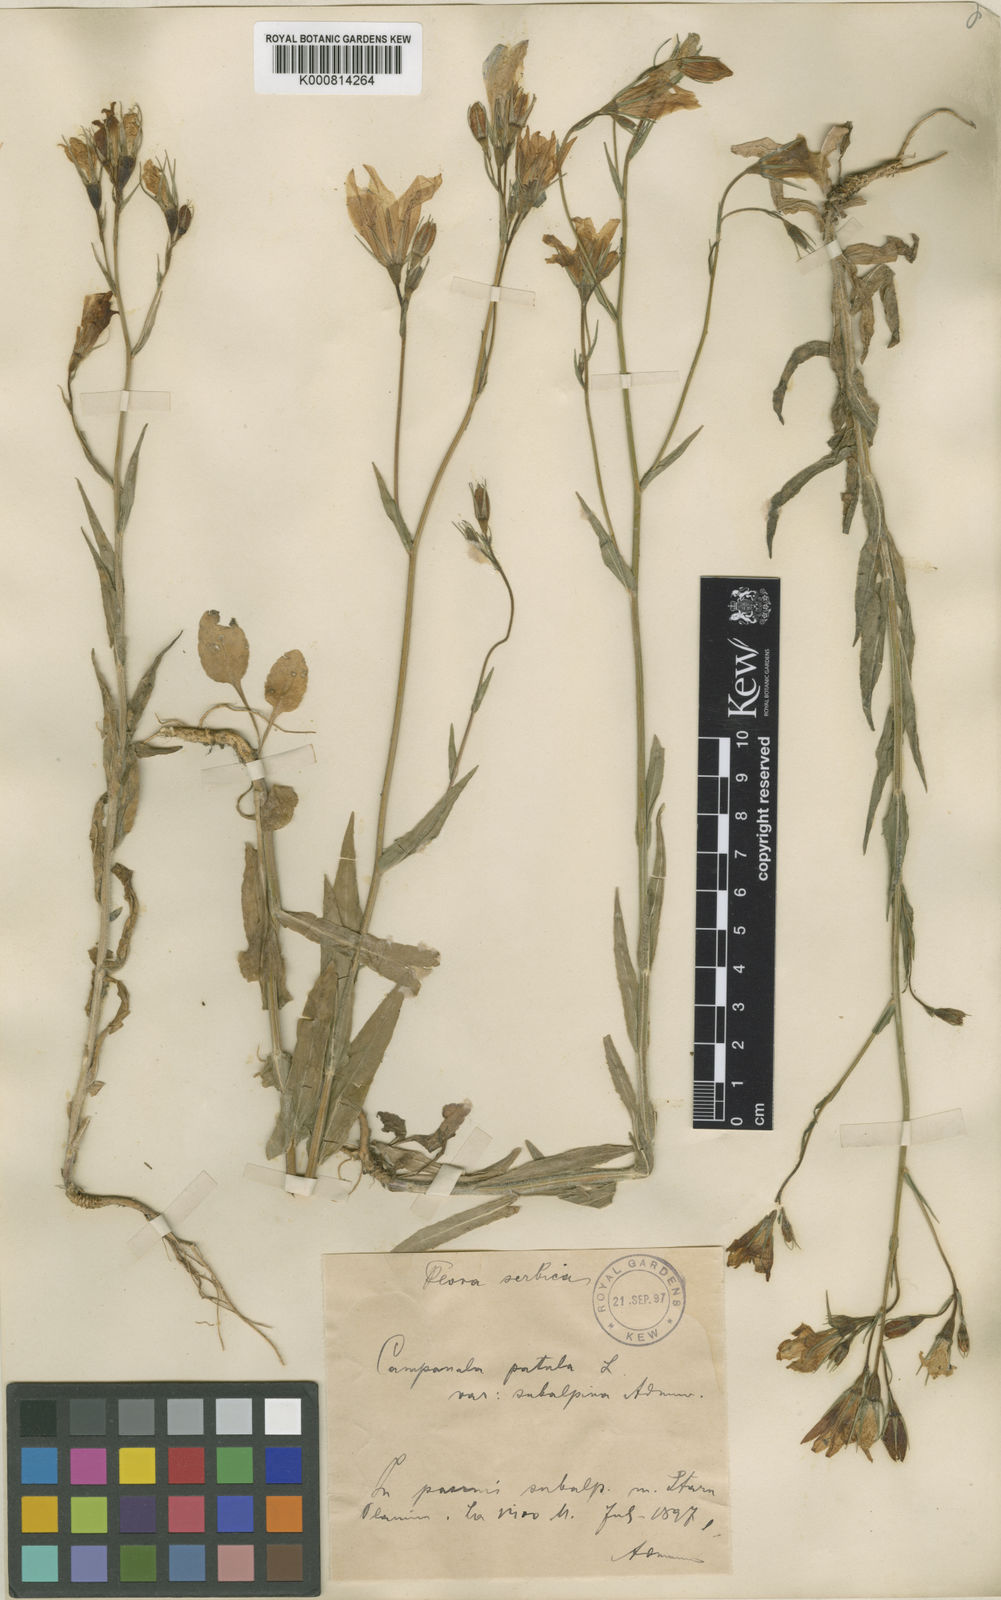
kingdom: Plantae
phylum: Tracheophyta
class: Magnoliopsida
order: Asterales
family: Campanulaceae
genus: Campanula
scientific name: Campanula patula
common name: Spreading bellflower
